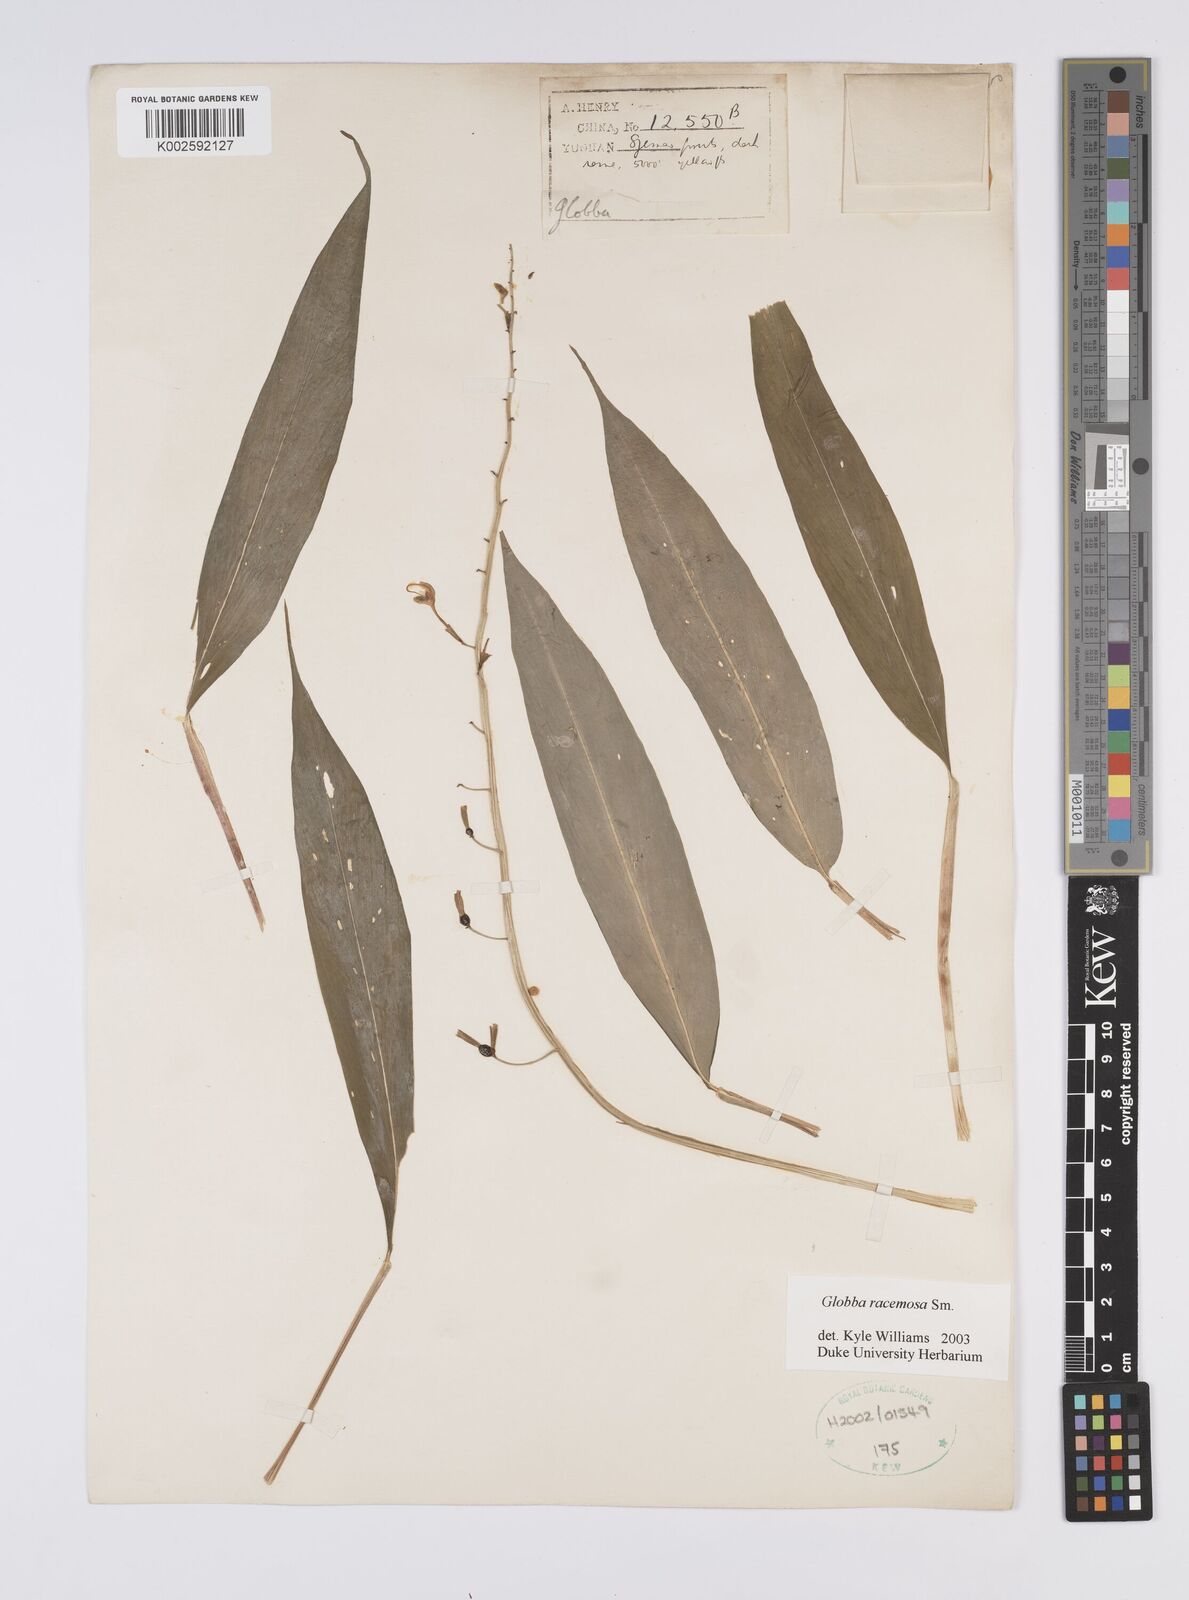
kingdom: Plantae
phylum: Tracheophyta
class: Liliopsida
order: Zingiberales
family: Zingiberaceae
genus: Globba
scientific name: Globba racemosa
